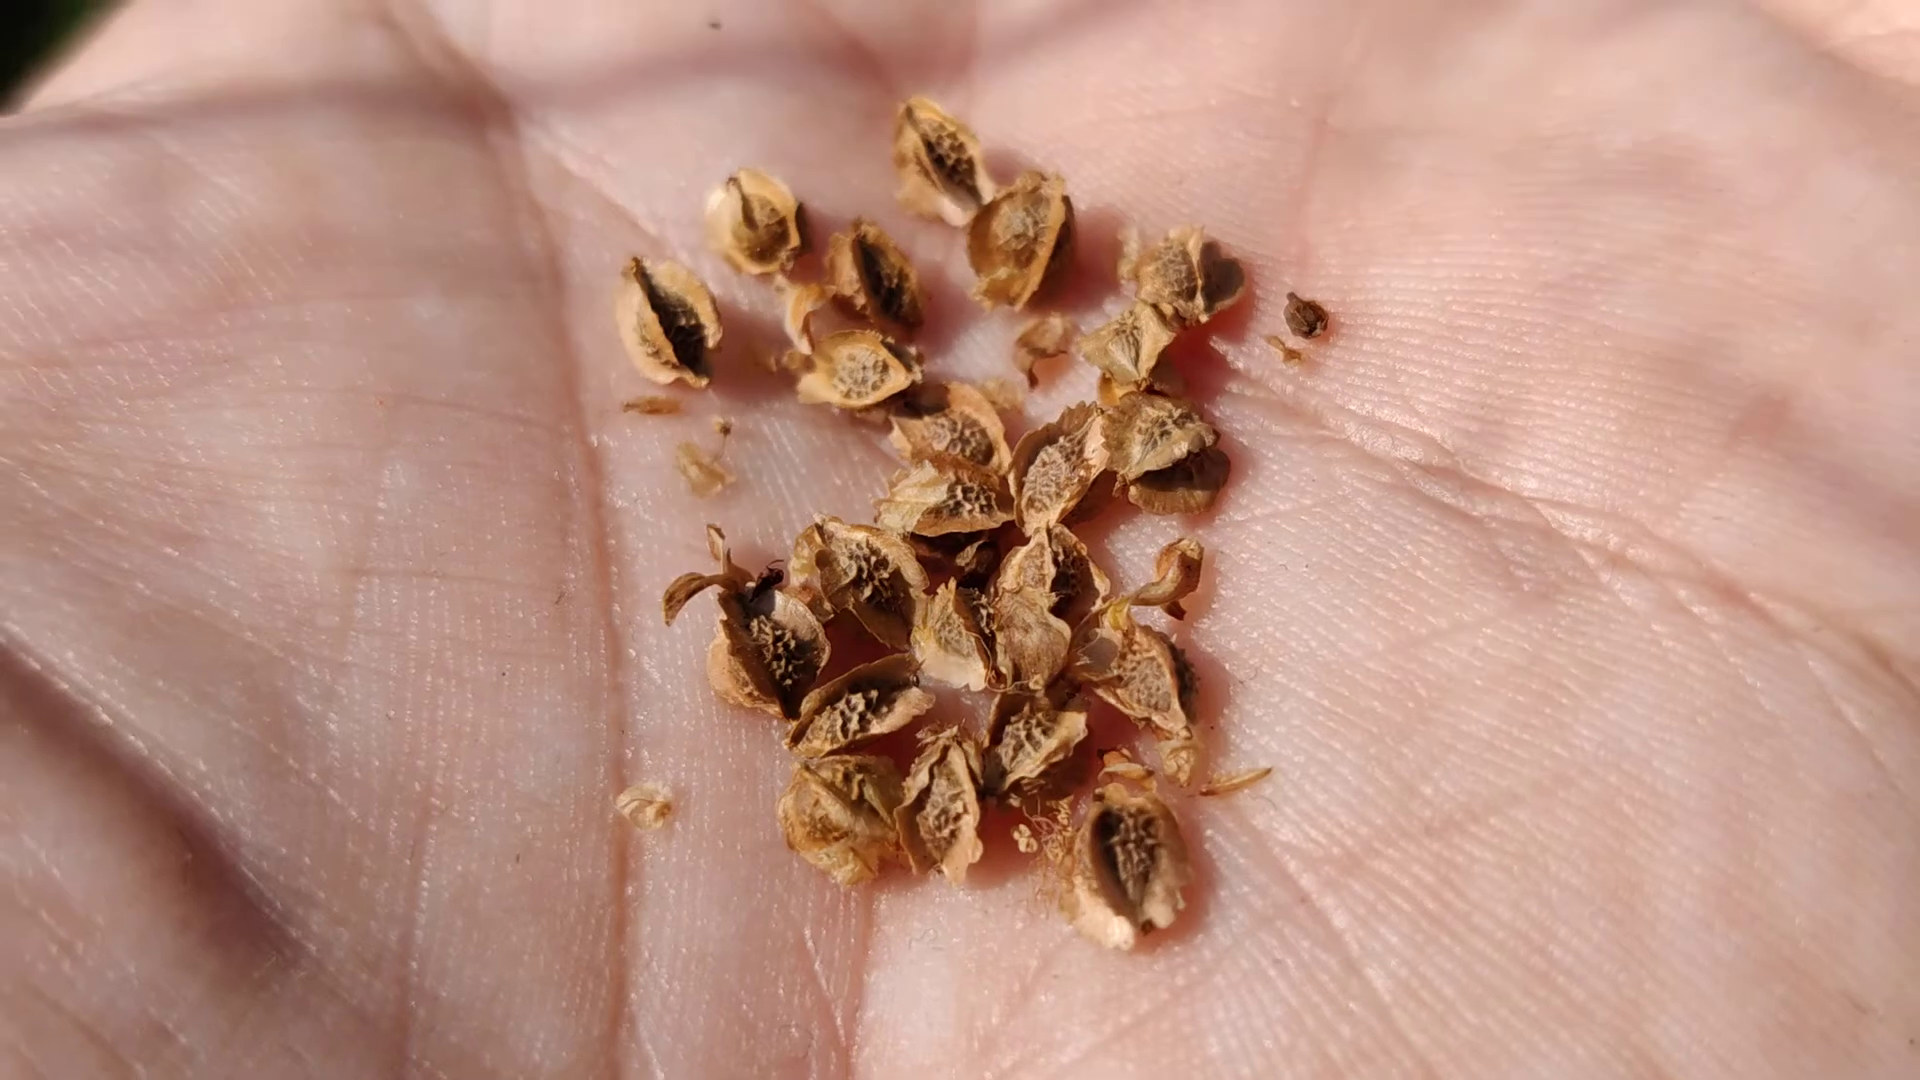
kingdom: Plantae
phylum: Tracheophyta
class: Magnoliopsida
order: Rosales
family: Rosaceae
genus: Poterium
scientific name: Poterium sanguisorba
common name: Vingefrøet bibernelle
